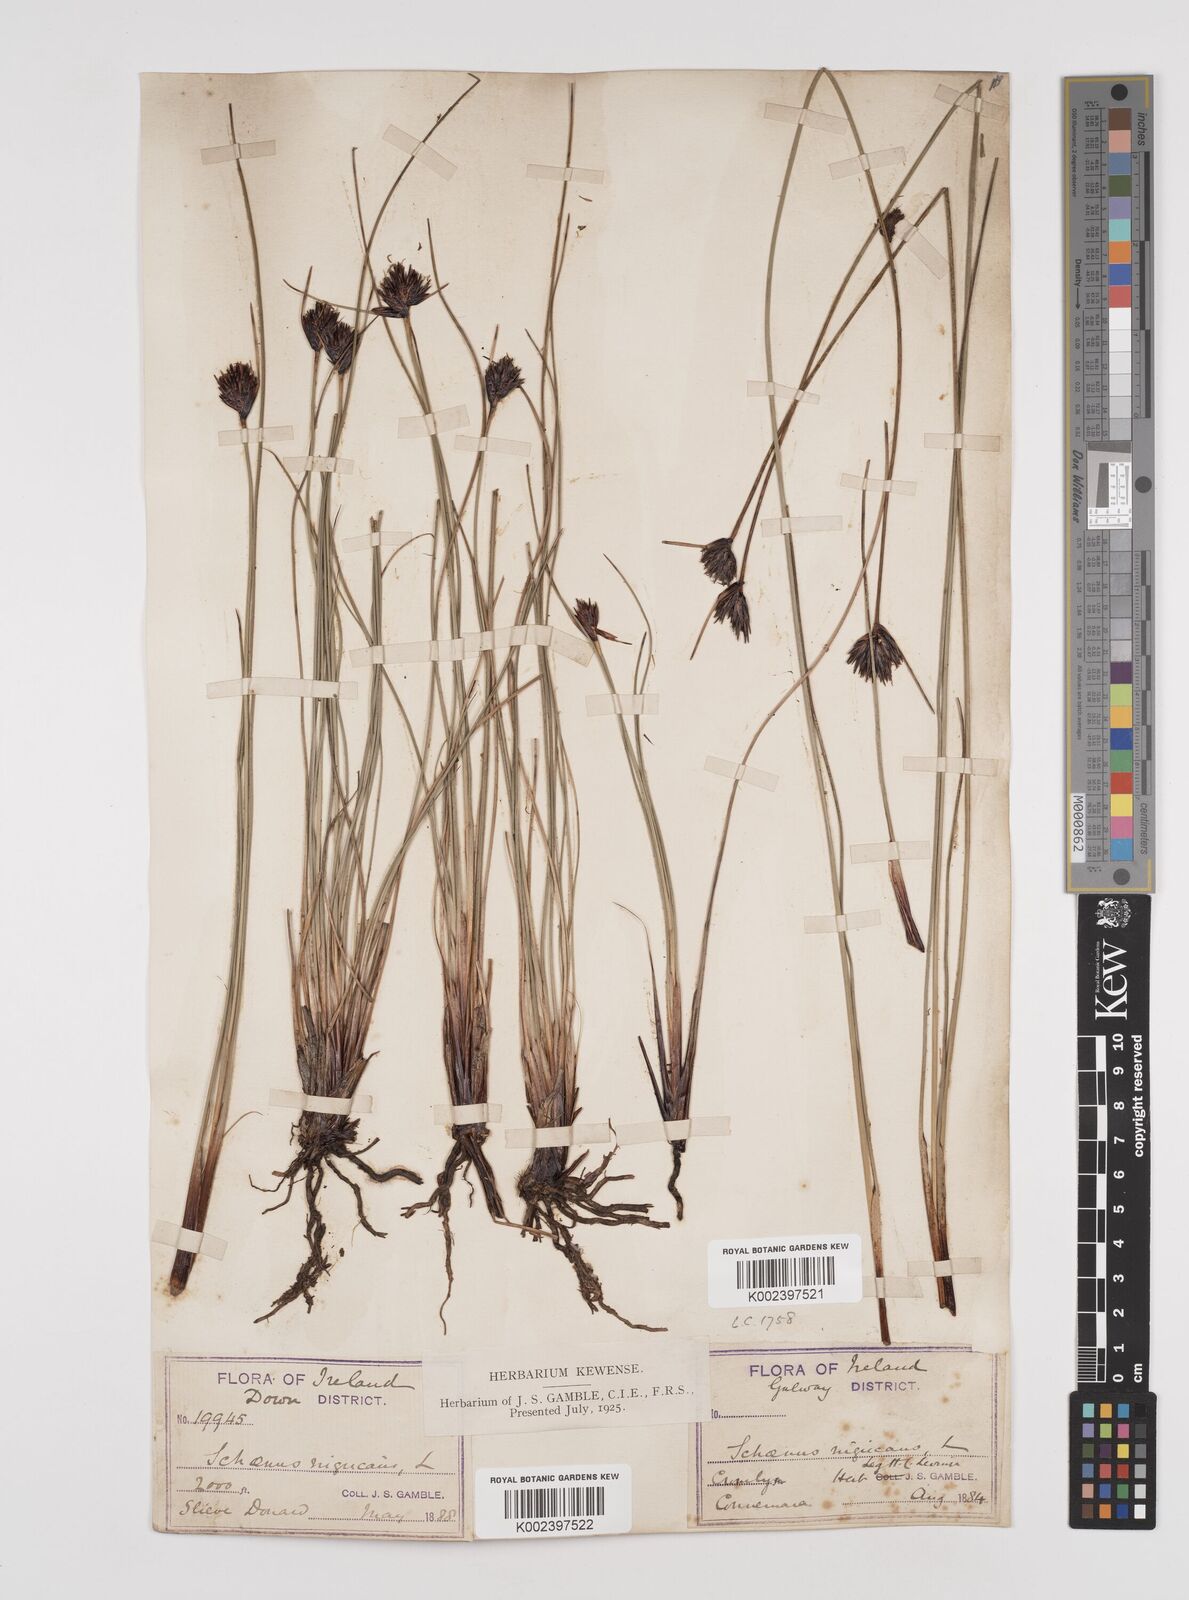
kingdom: Plantae
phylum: Tracheophyta
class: Liliopsida
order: Poales
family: Cyperaceae
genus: Schoenus
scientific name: Schoenus nigricans
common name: Black bog-rush
